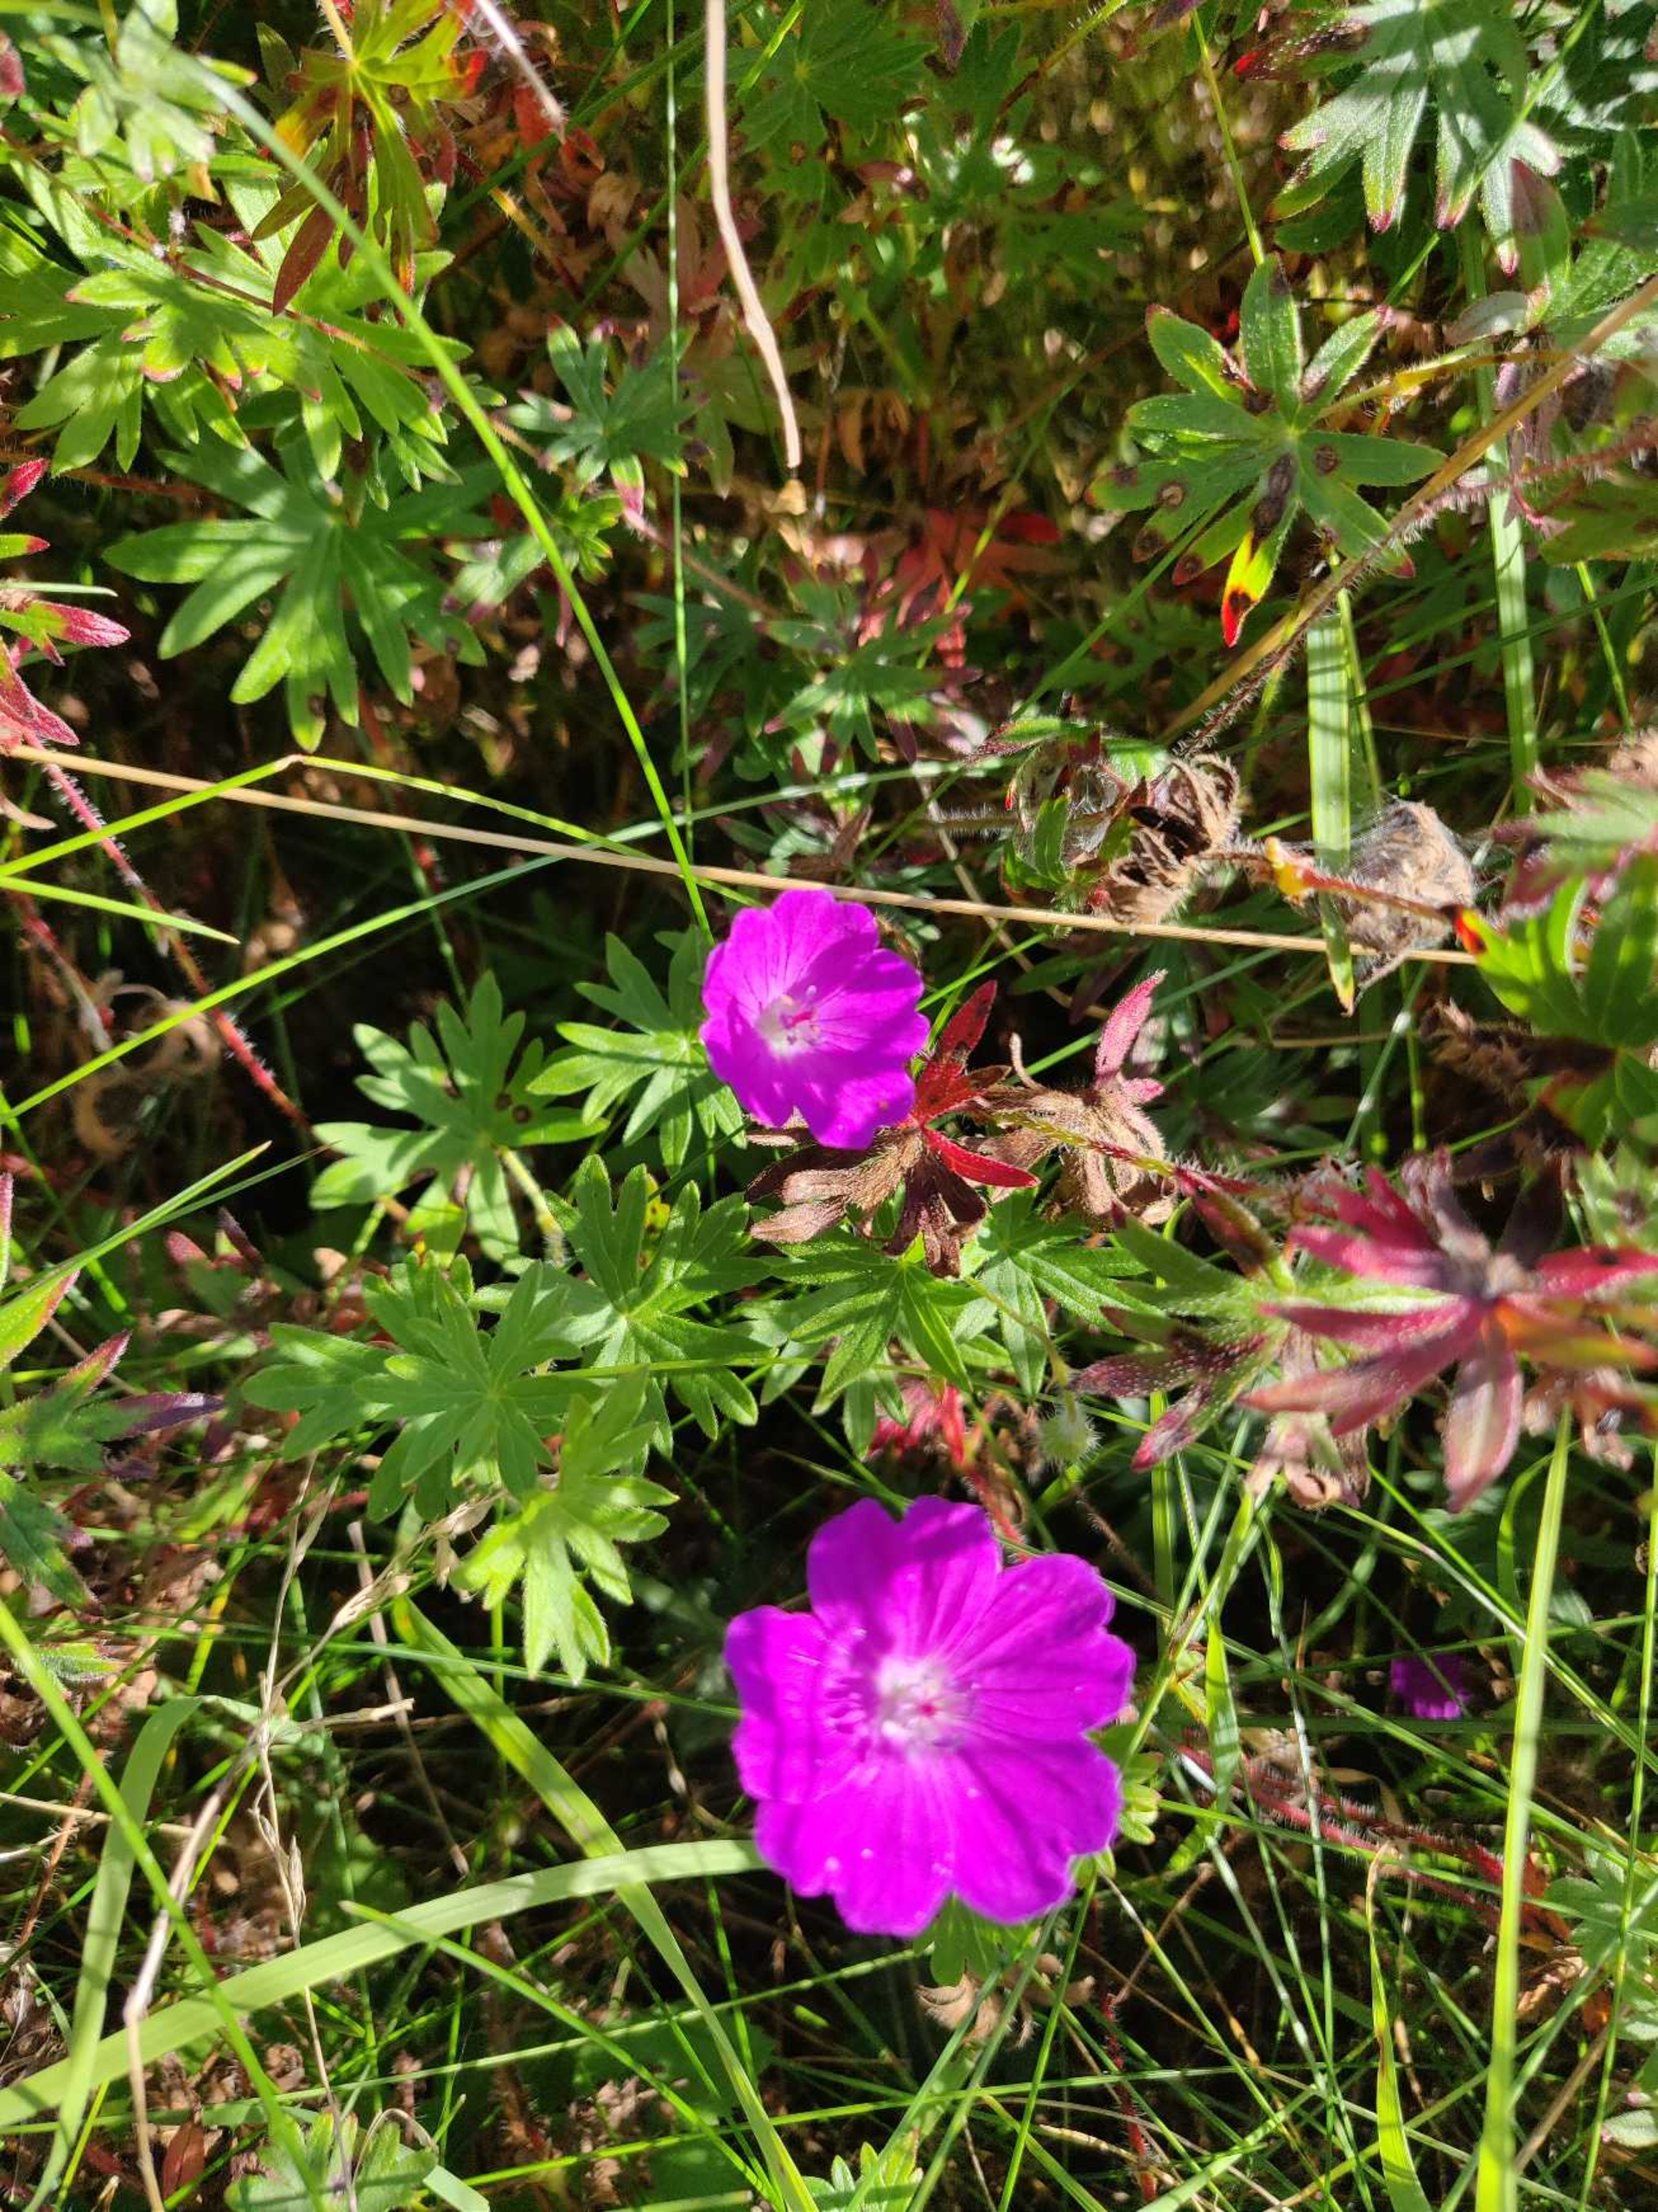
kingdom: Plantae
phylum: Tracheophyta
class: Magnoliopsida
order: Geraniales
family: Geraniaceae
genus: Geranium
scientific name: Geranium sanguineum
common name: Blodrød storkenæb
